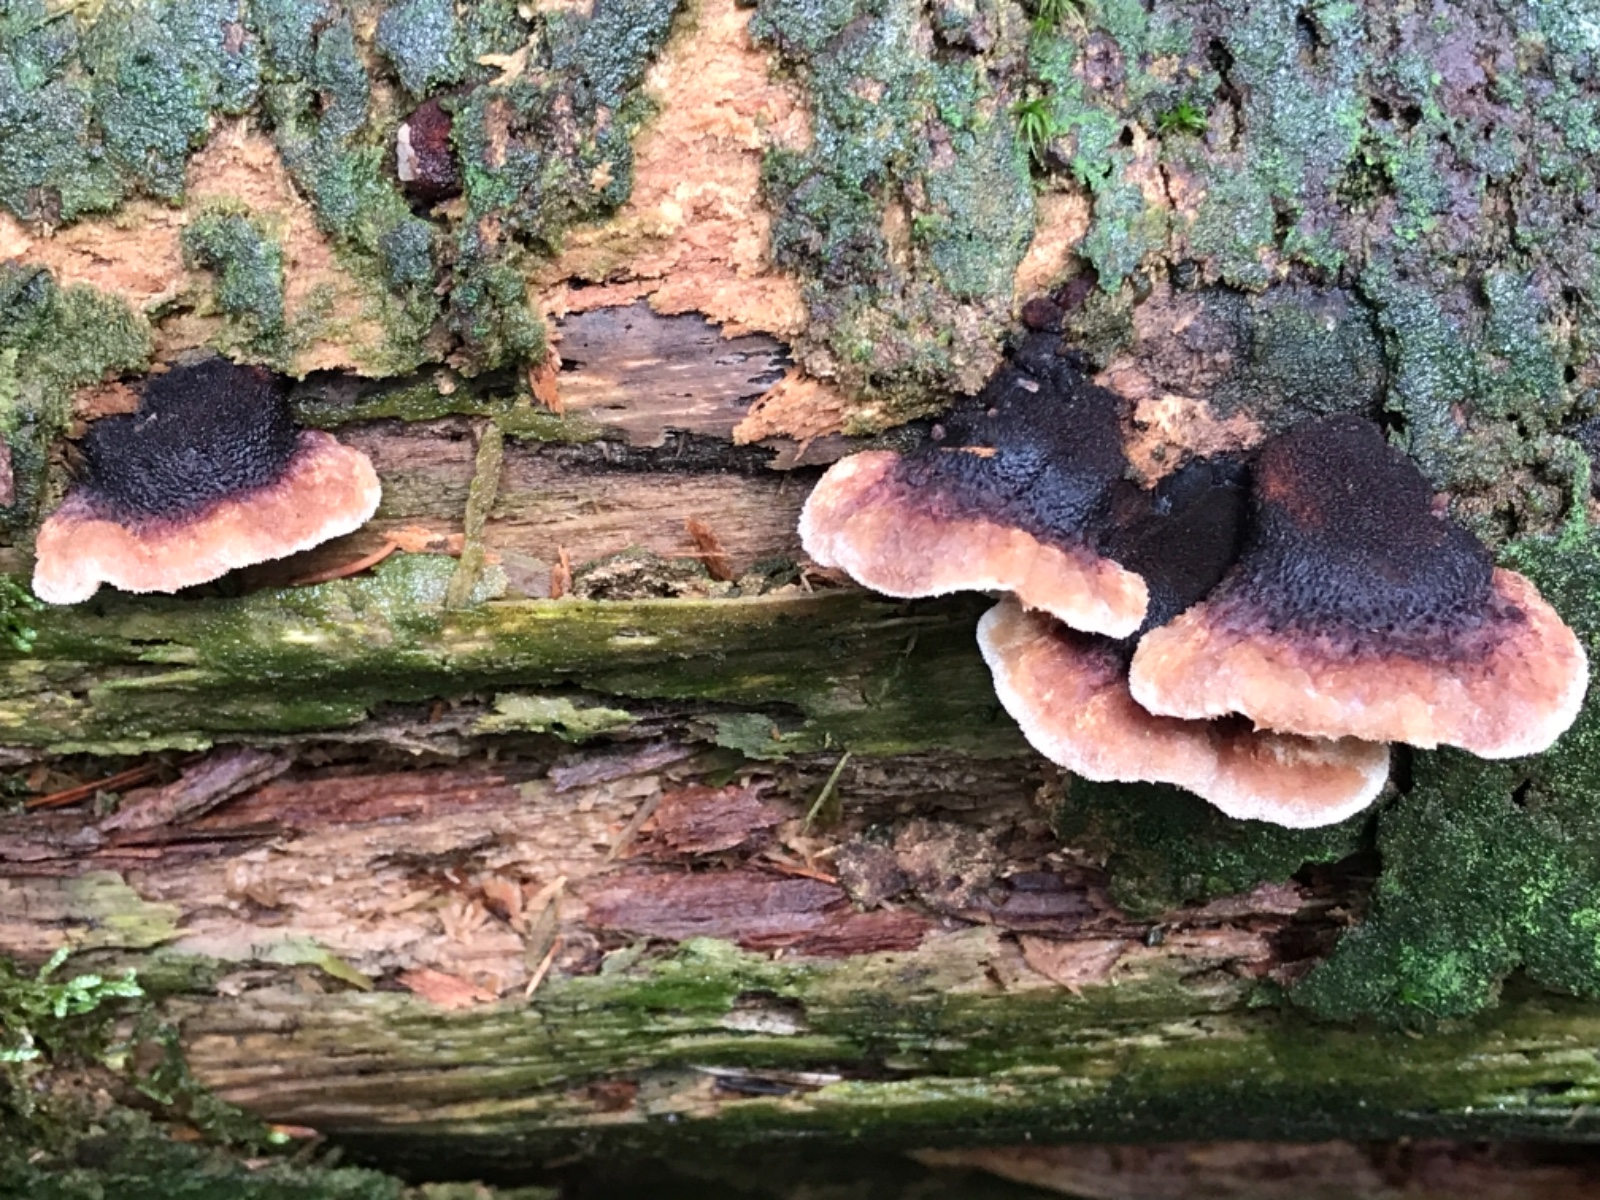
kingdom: Fungi
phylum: Basidiomycota
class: Agaricomycetes
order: Polyporales
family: Ischnodermataceae
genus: Ischnoderma
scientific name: Ischnoderma benzoinum
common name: gran-tjæreporesvamp
